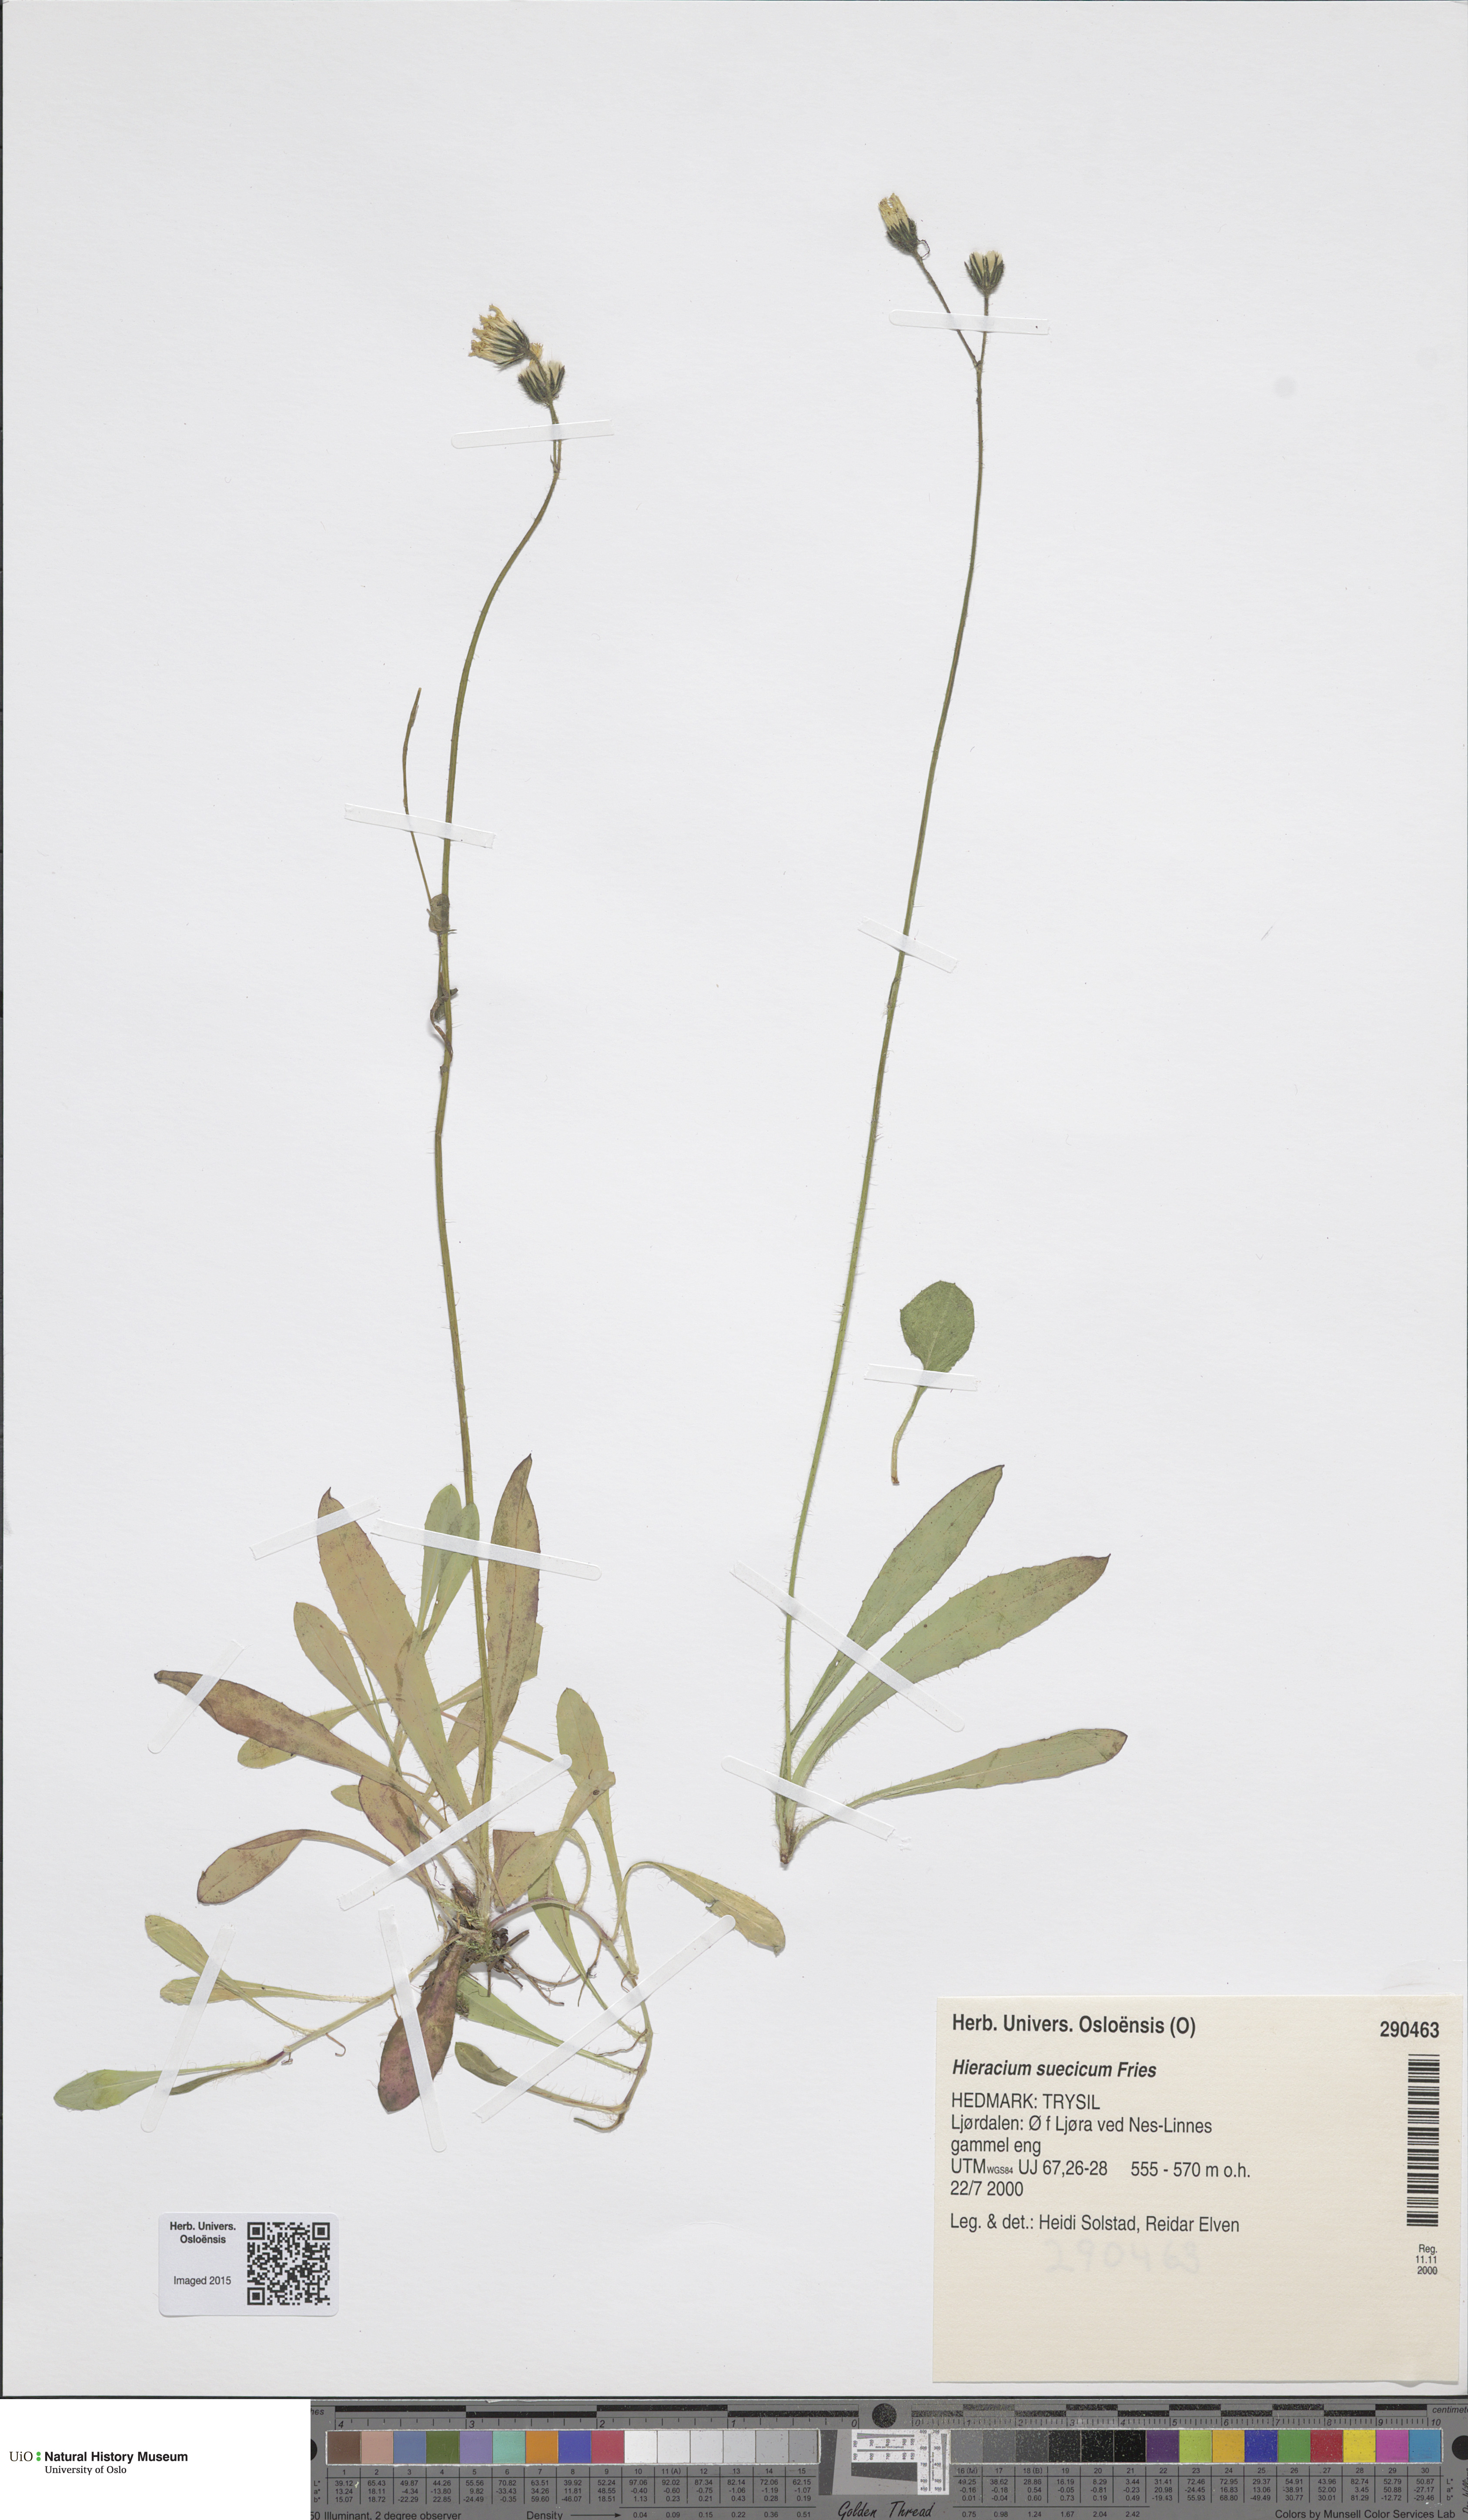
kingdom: Plantae
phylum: Tracheophyta
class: Magnoliopsida
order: Asterales
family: Asteraceae
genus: Pilosella
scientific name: Pilosella dubia
